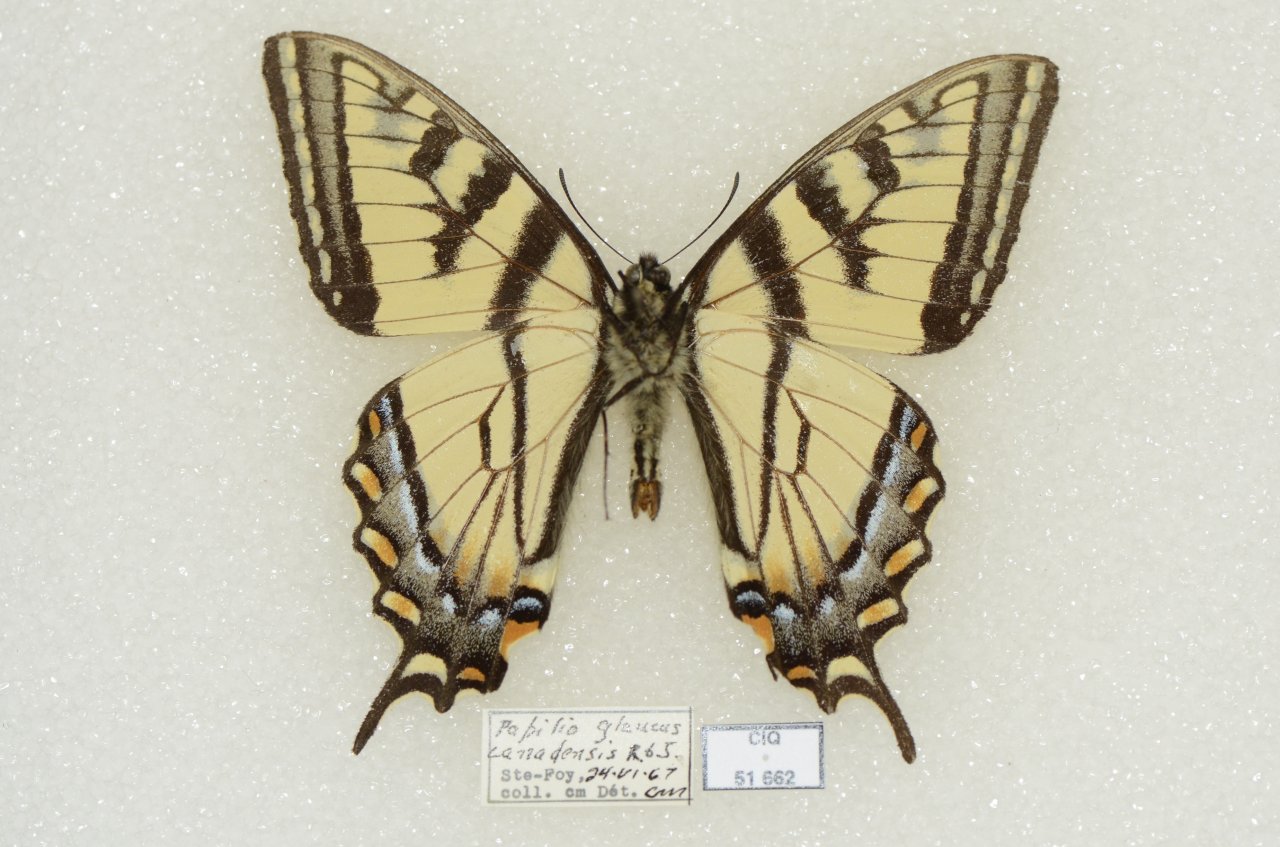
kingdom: Animalia
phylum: Arthropoda
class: Insecta
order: Lepidoptera
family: Papilionidae
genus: Pterourus
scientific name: Pterourus canadensis
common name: Canadian Tiger Swallowtail
